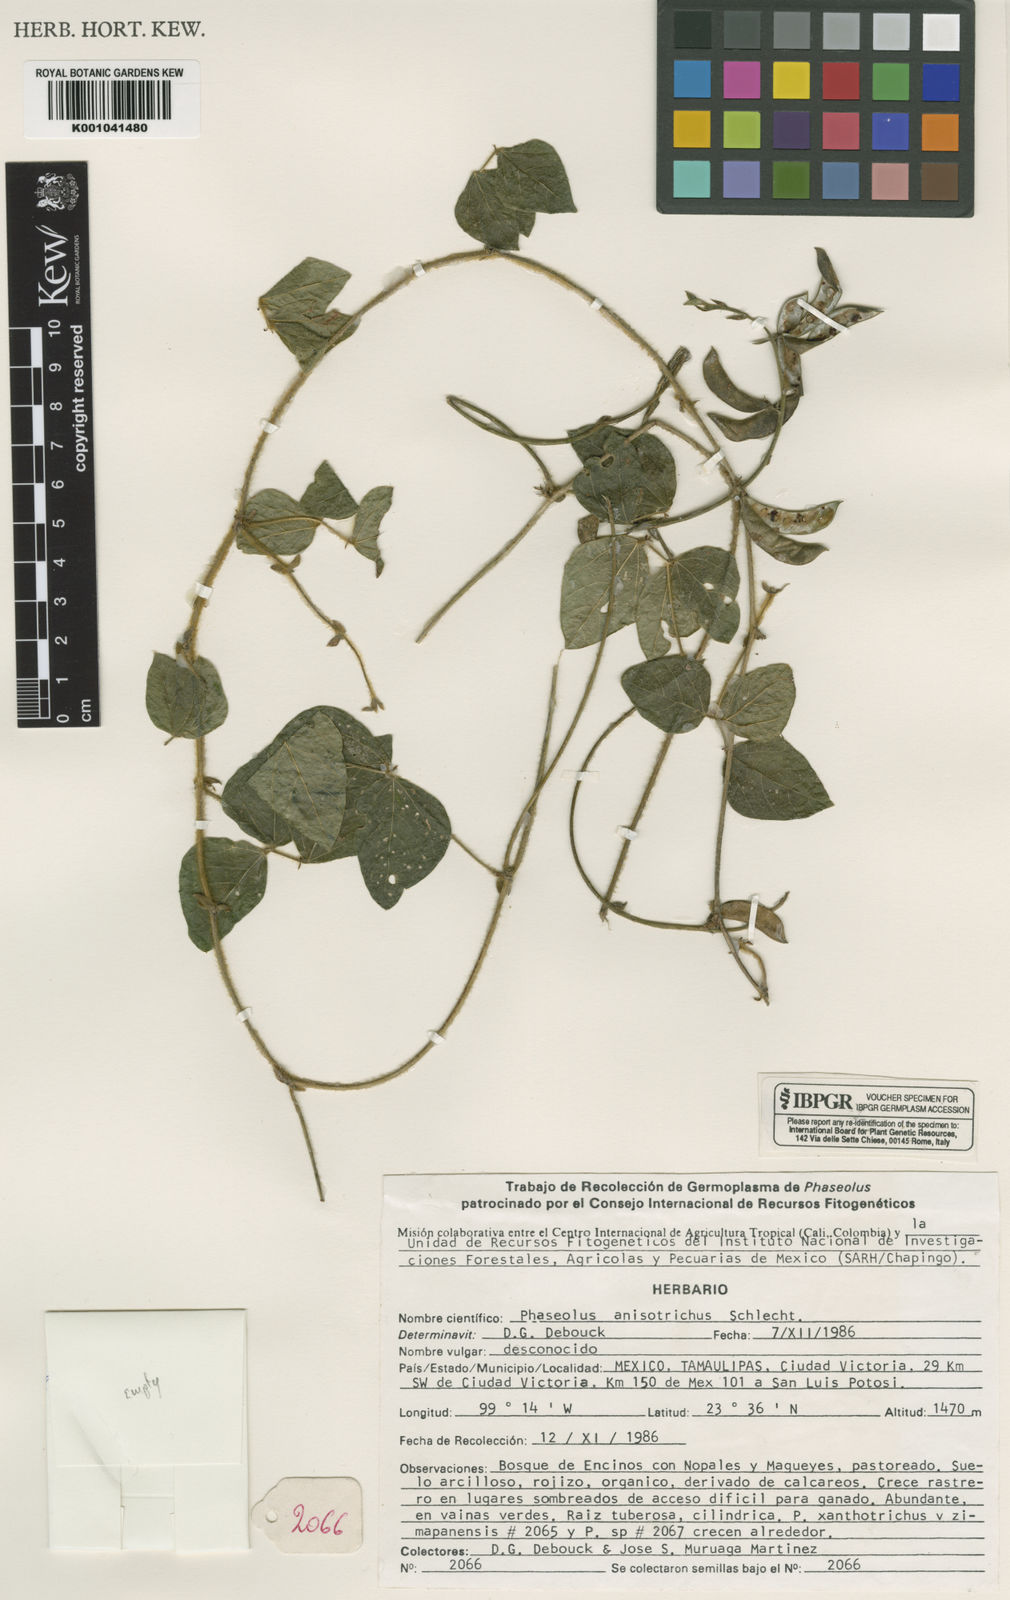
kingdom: Plantae
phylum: Tracheophyta
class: Magnoliopsida
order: Fabales
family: Fabaceae
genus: Phaseolus
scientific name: Phaseolus
